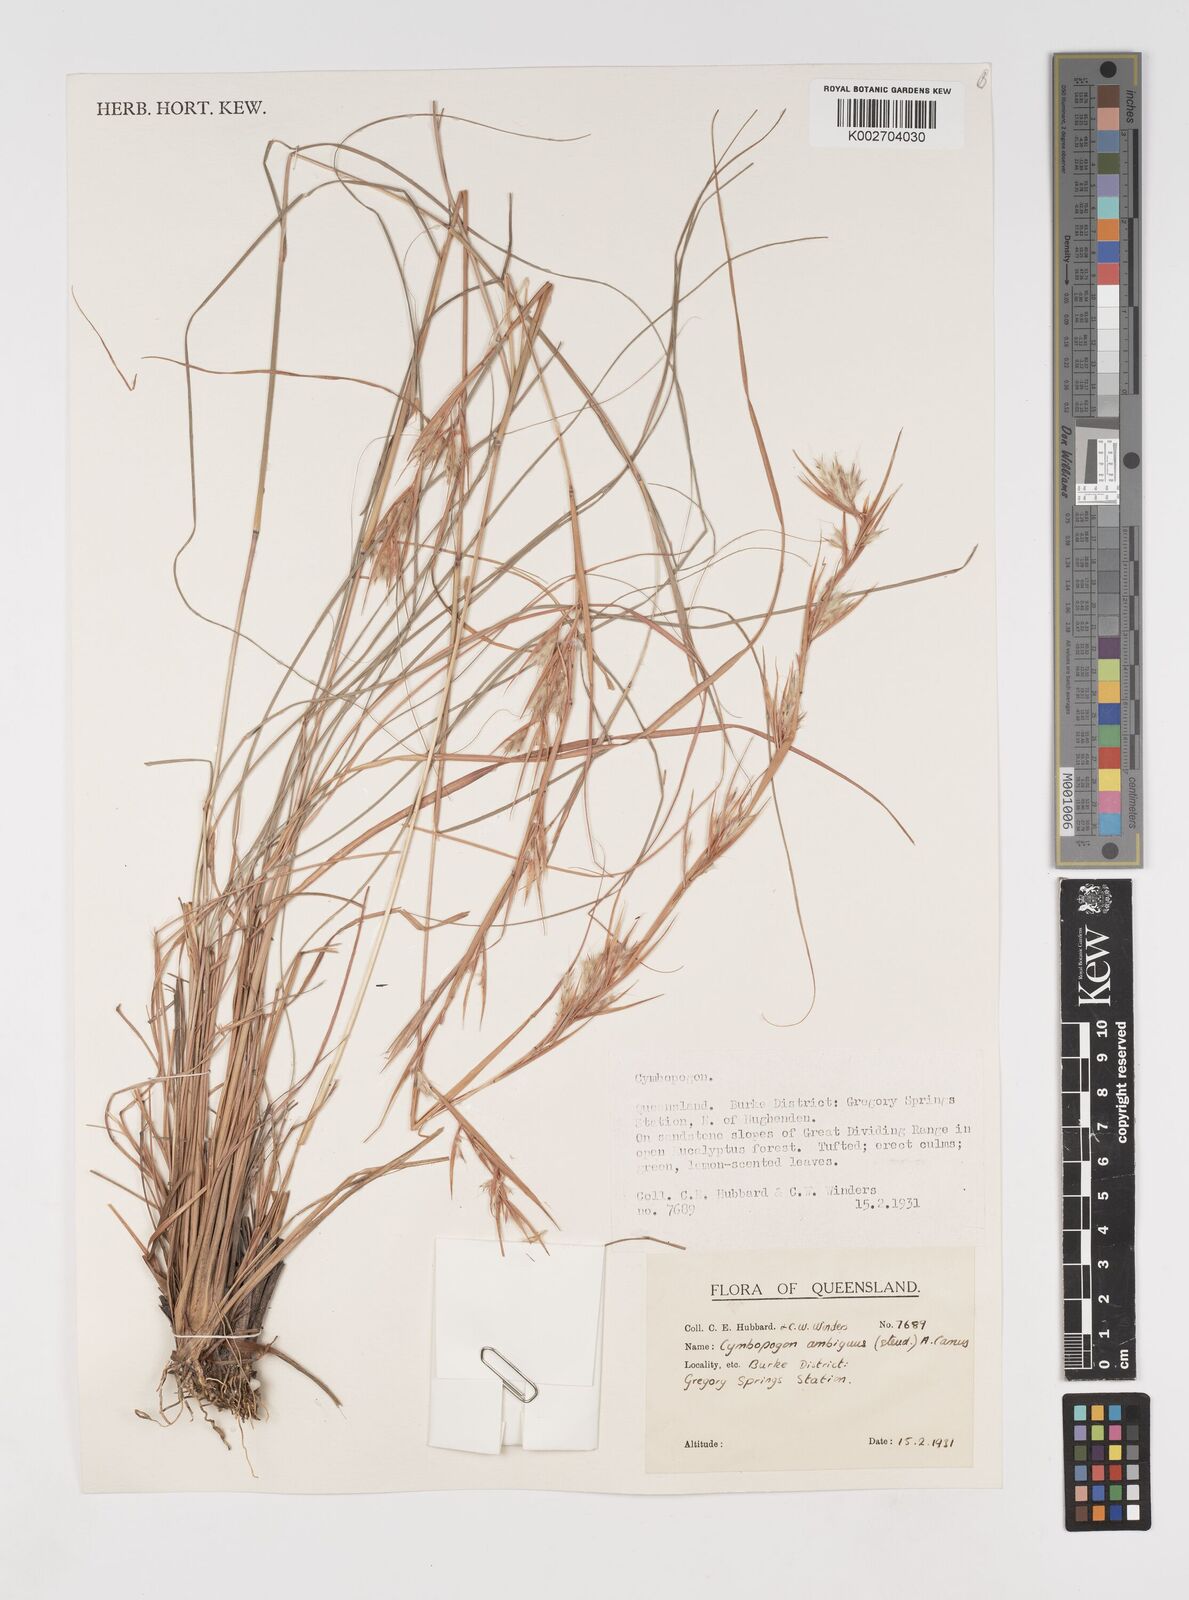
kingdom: Plantae
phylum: Tracheophyta
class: Liliopsida
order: Poales
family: Poaceae
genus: Cymbopogon
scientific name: Cymbopogon ambiguus
